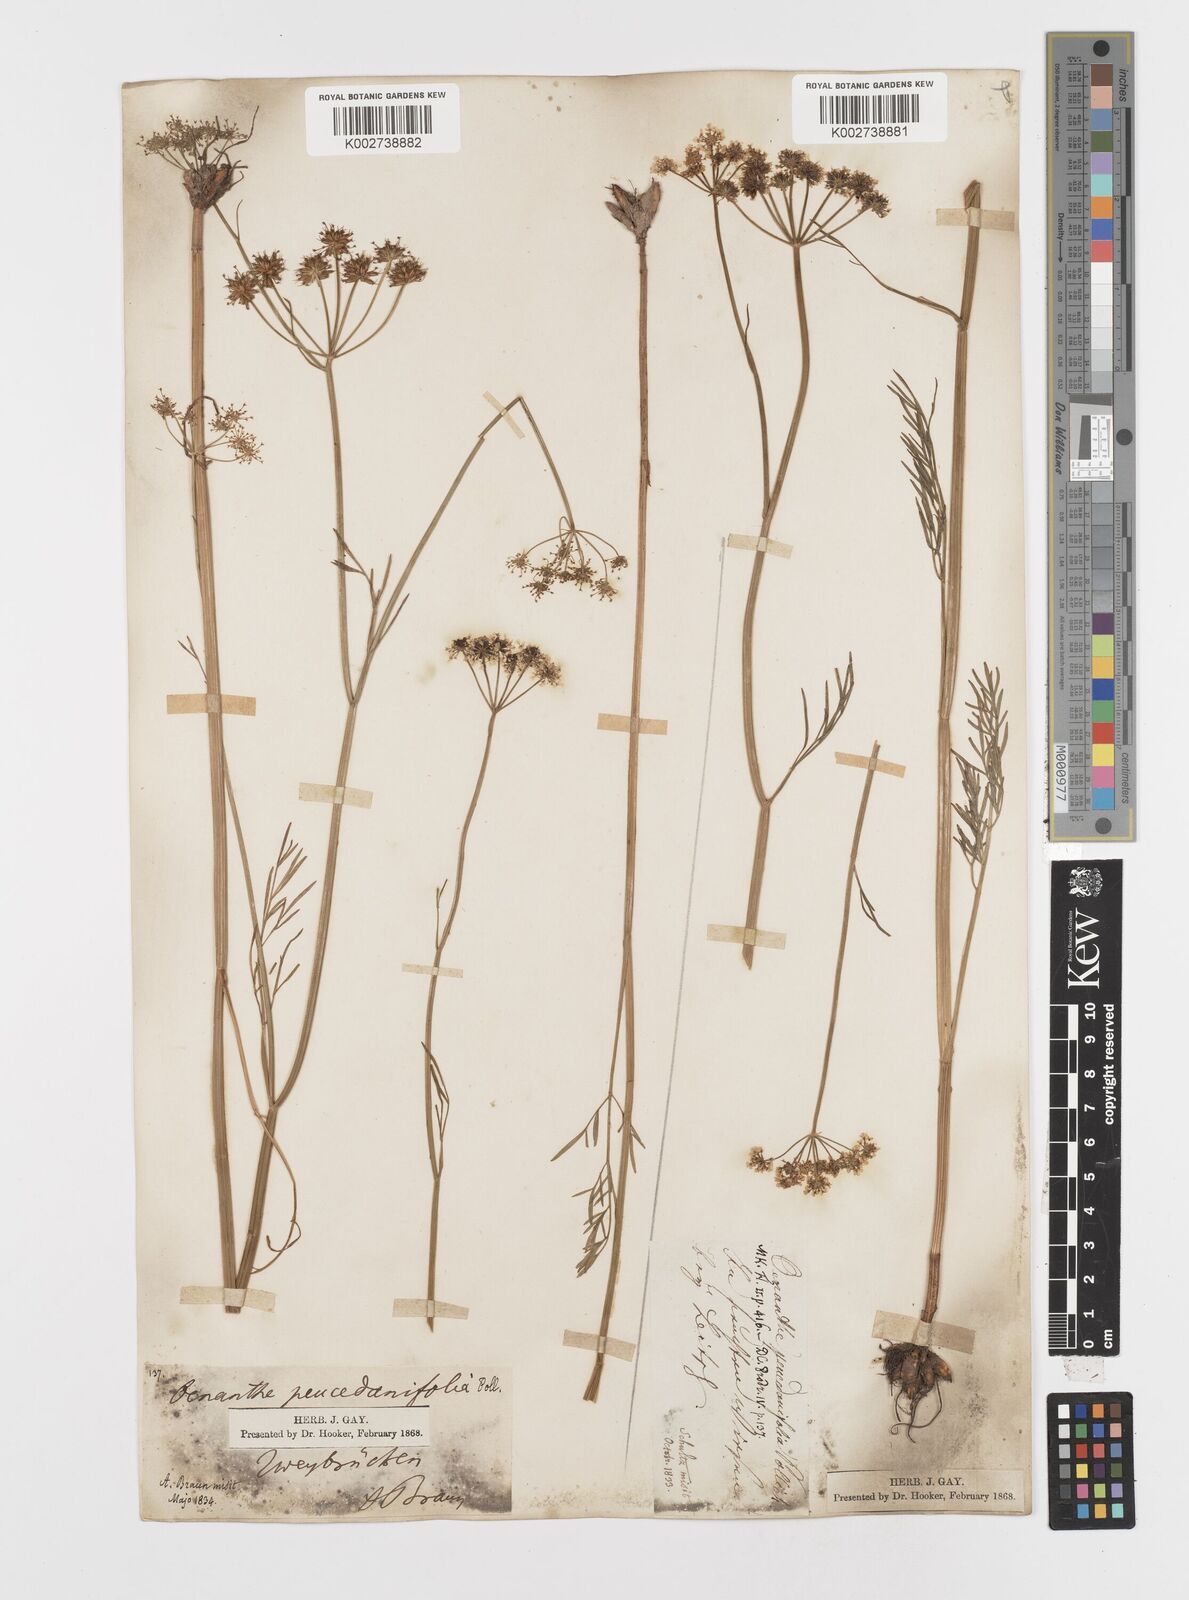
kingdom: Plantae
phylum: Tracheophyta
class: Magnoliopsida
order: Apiales
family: Apiaceae
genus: Oenanthe
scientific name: Oenanthe peucedanifolia
